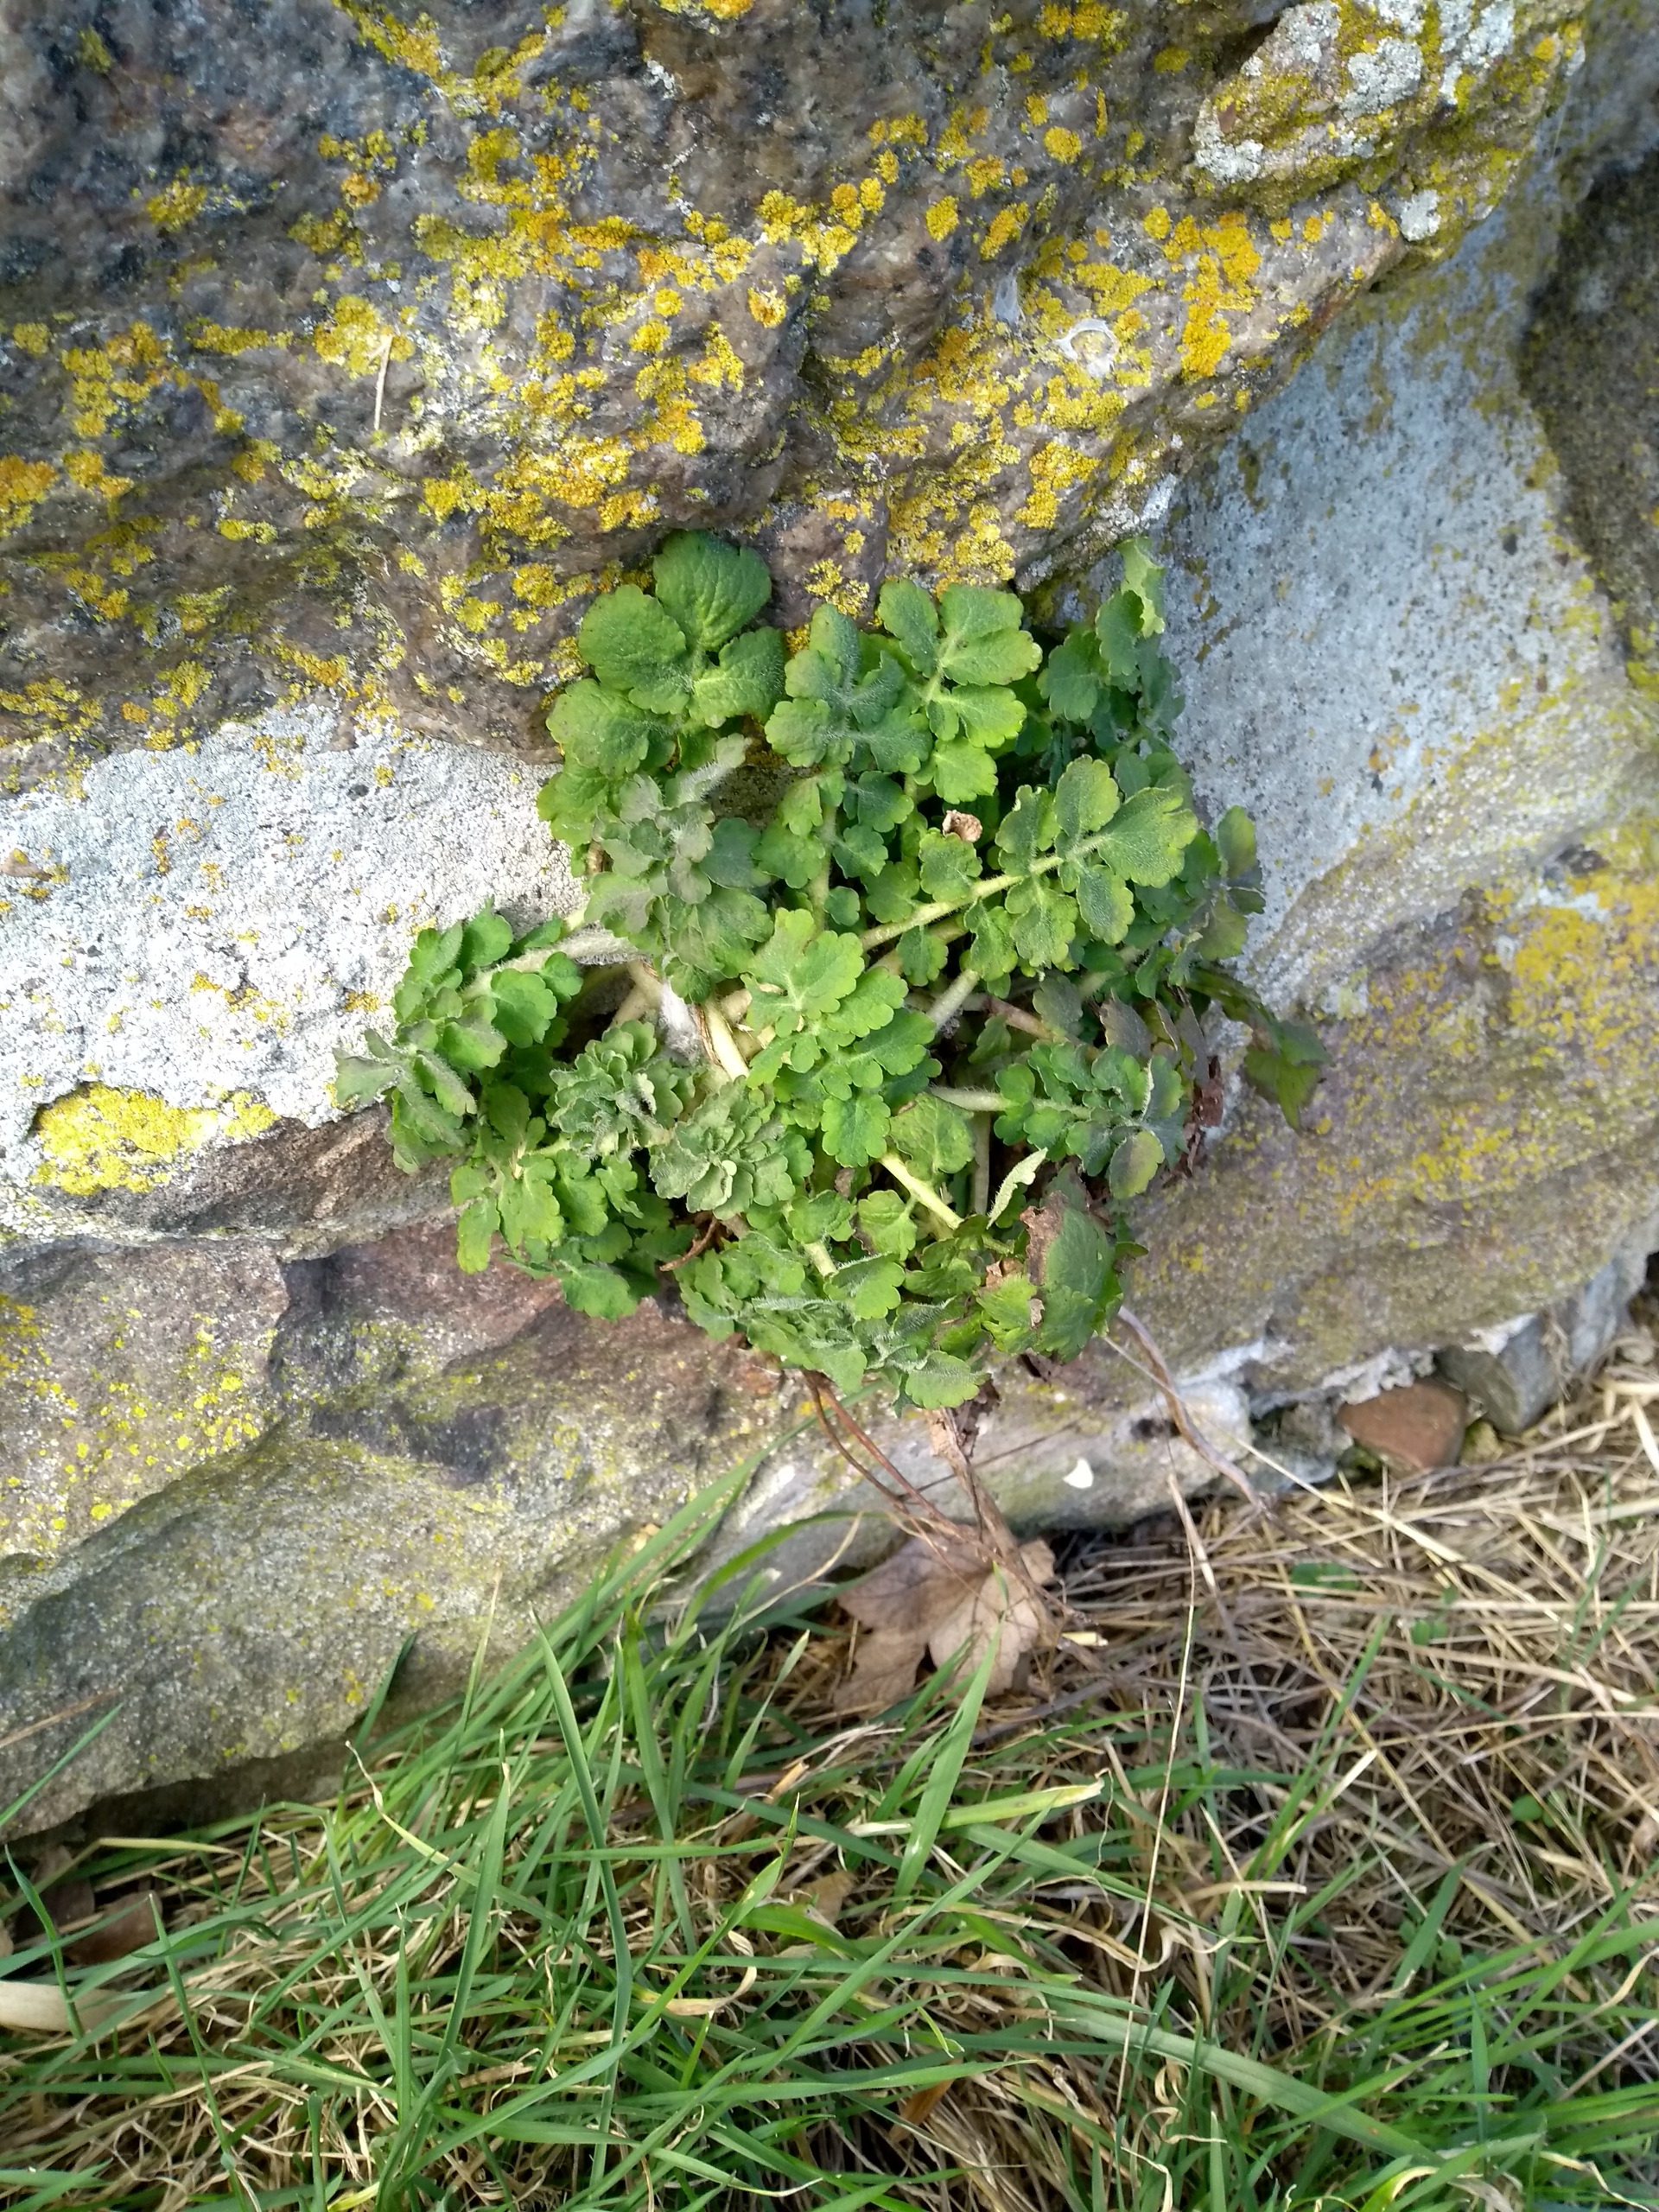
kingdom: Plantae
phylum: Tracheophyta
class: Magnoliopsida
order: Ranunculales
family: Papaveraceae
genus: Chelidonium
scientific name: Chelidonium majus
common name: Svaleurt
